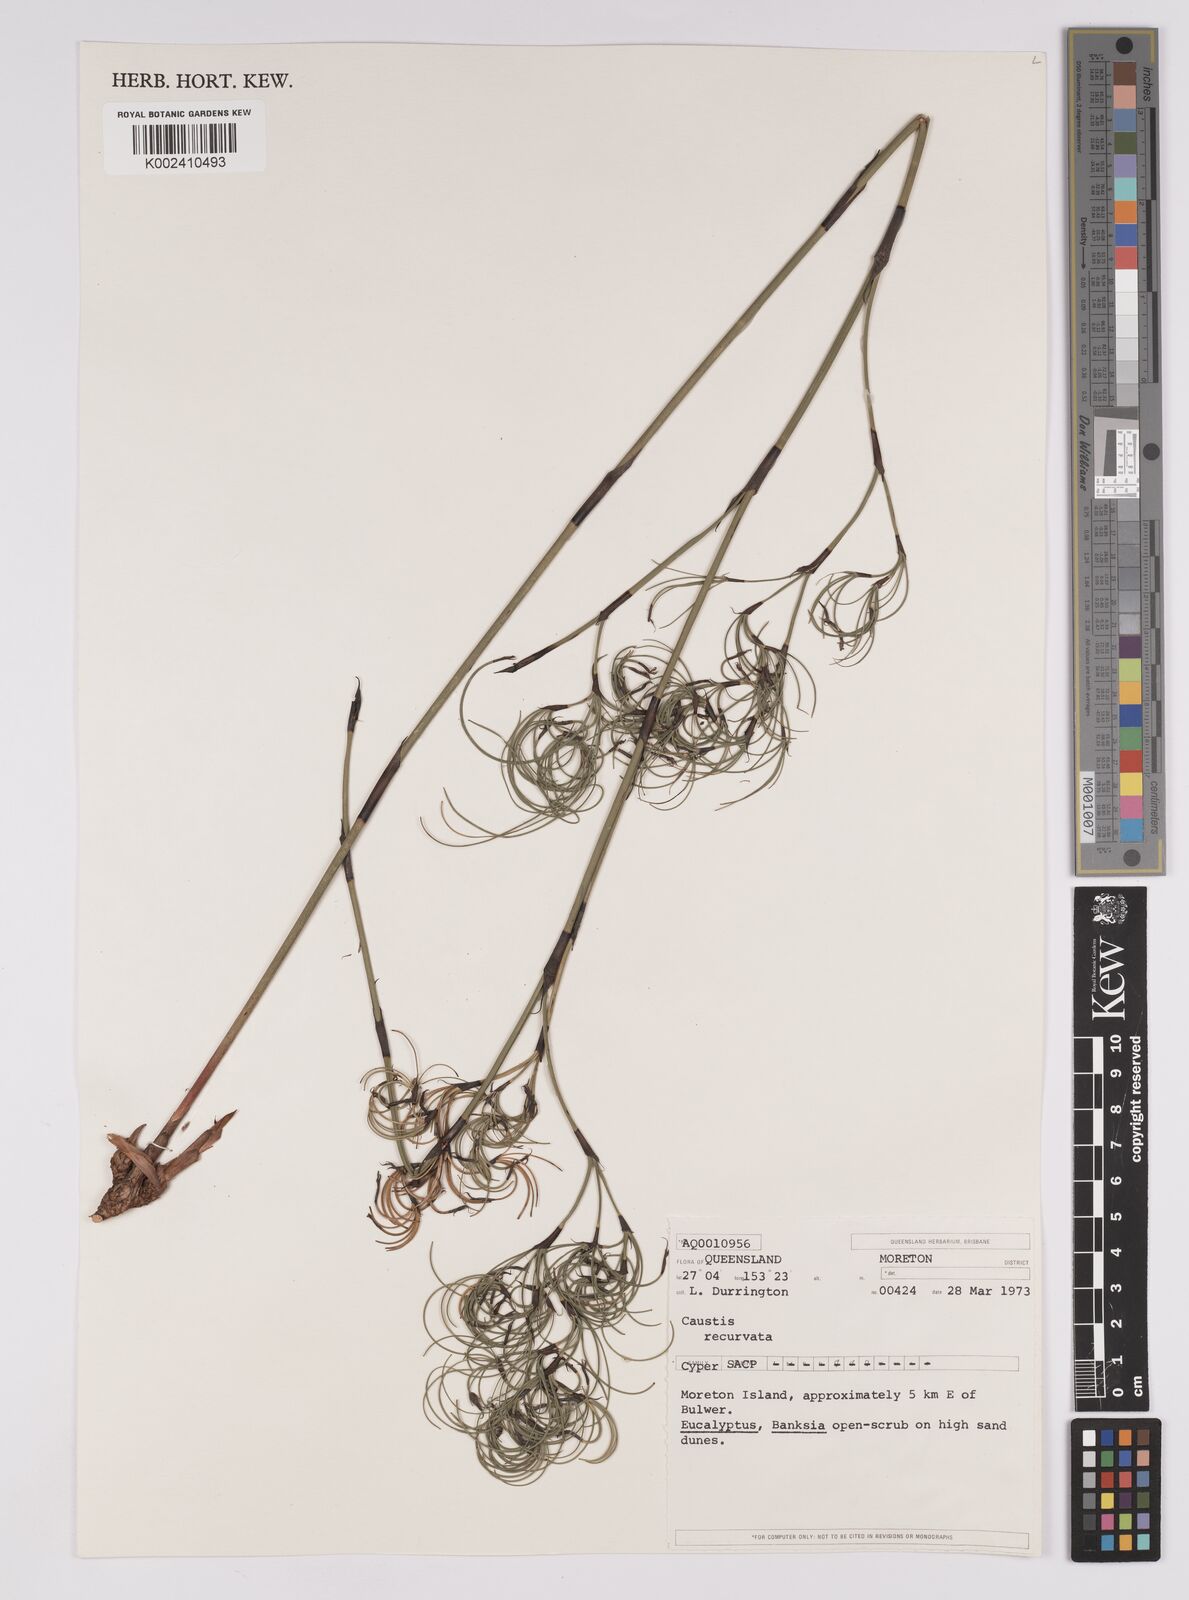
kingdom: Plantae
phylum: Tracheophyta
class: Liliopsida
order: Poales
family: Cyperaceae
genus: Caustis
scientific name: Caustis recurvata
